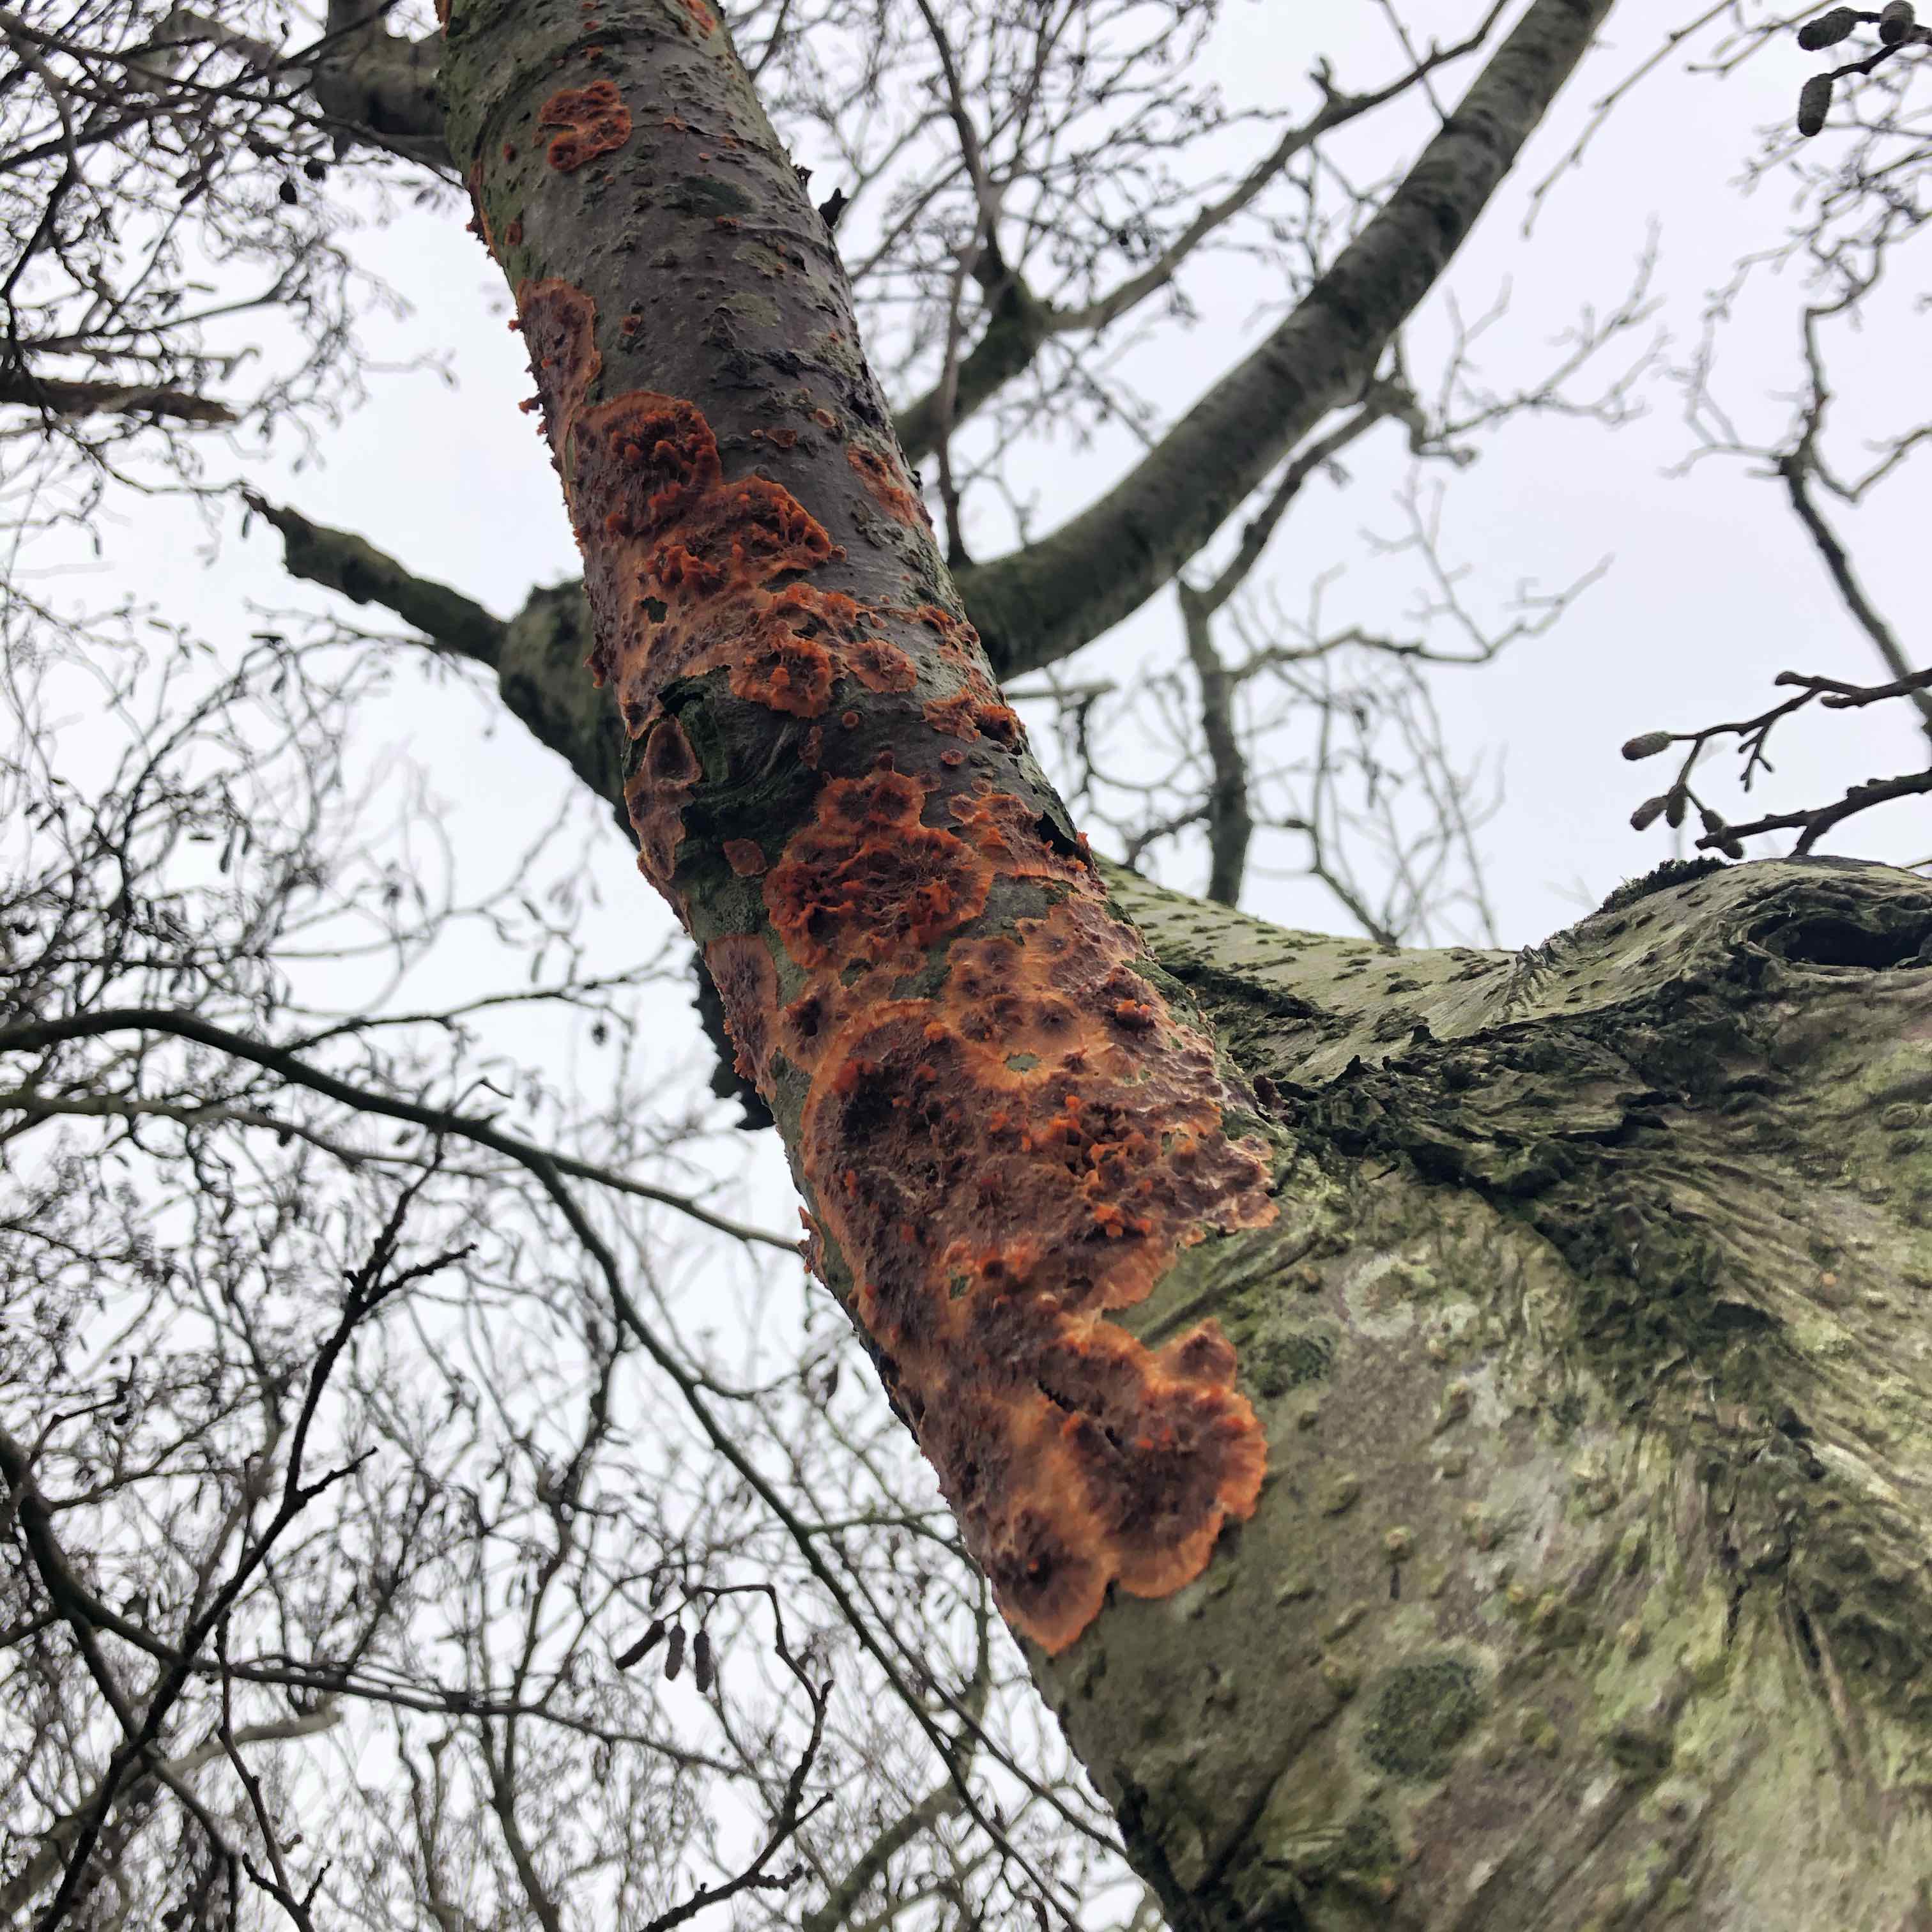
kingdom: Fungi
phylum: Basidiomycota
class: Agaricomycetes
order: Polyporales
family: Meruliaceae
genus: Phlebia
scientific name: Phlebia radiata
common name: stråle-åresvamp
